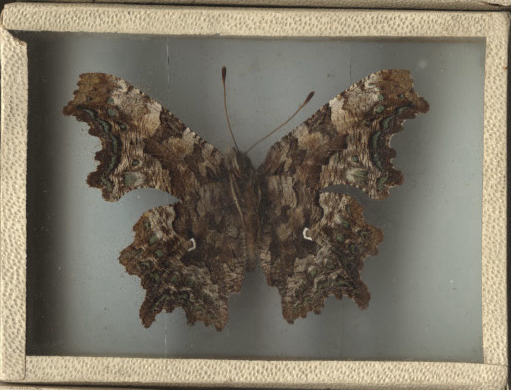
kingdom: Animalia
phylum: Arthropoda
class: Insecta
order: Lepidoptera
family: Nymphalidae
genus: Polygonia
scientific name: Polygonia faunus
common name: Green Comma
